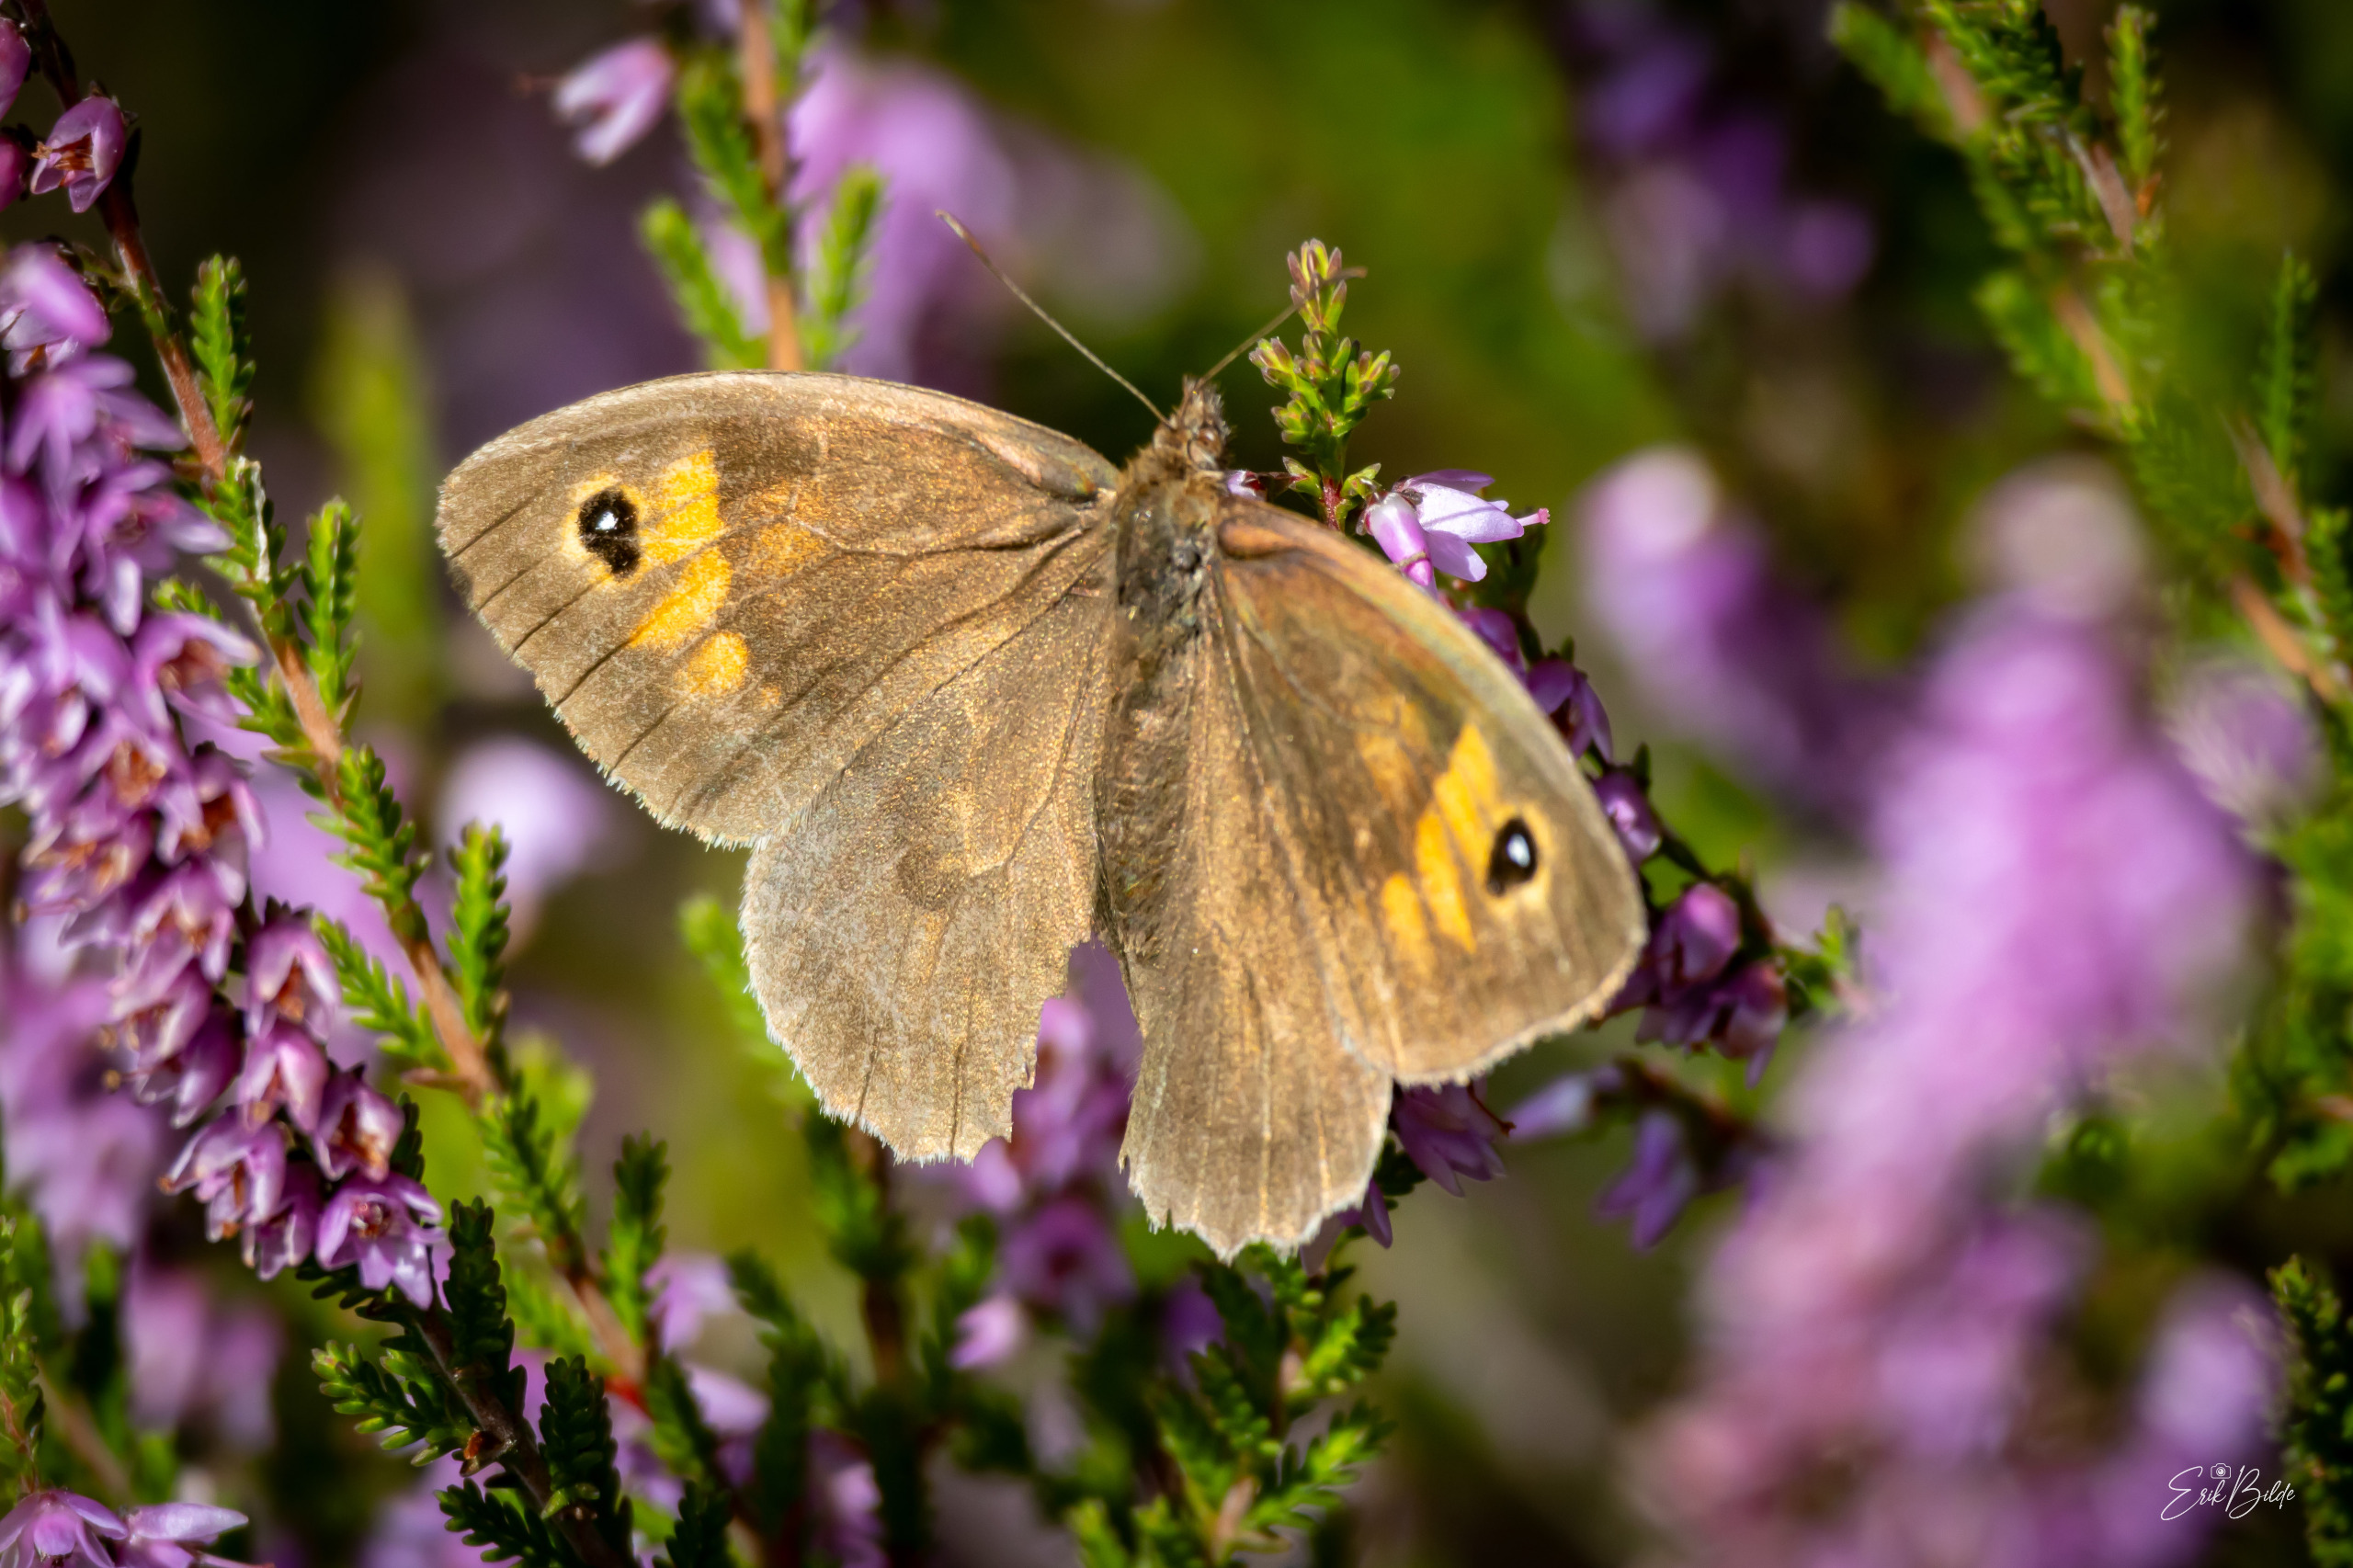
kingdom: Animalia
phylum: Arthropoda
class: Insecta
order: Lepidoptera
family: Nymphalidae
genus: Maniola
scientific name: Maniola jurtina
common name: Græsrandøje
